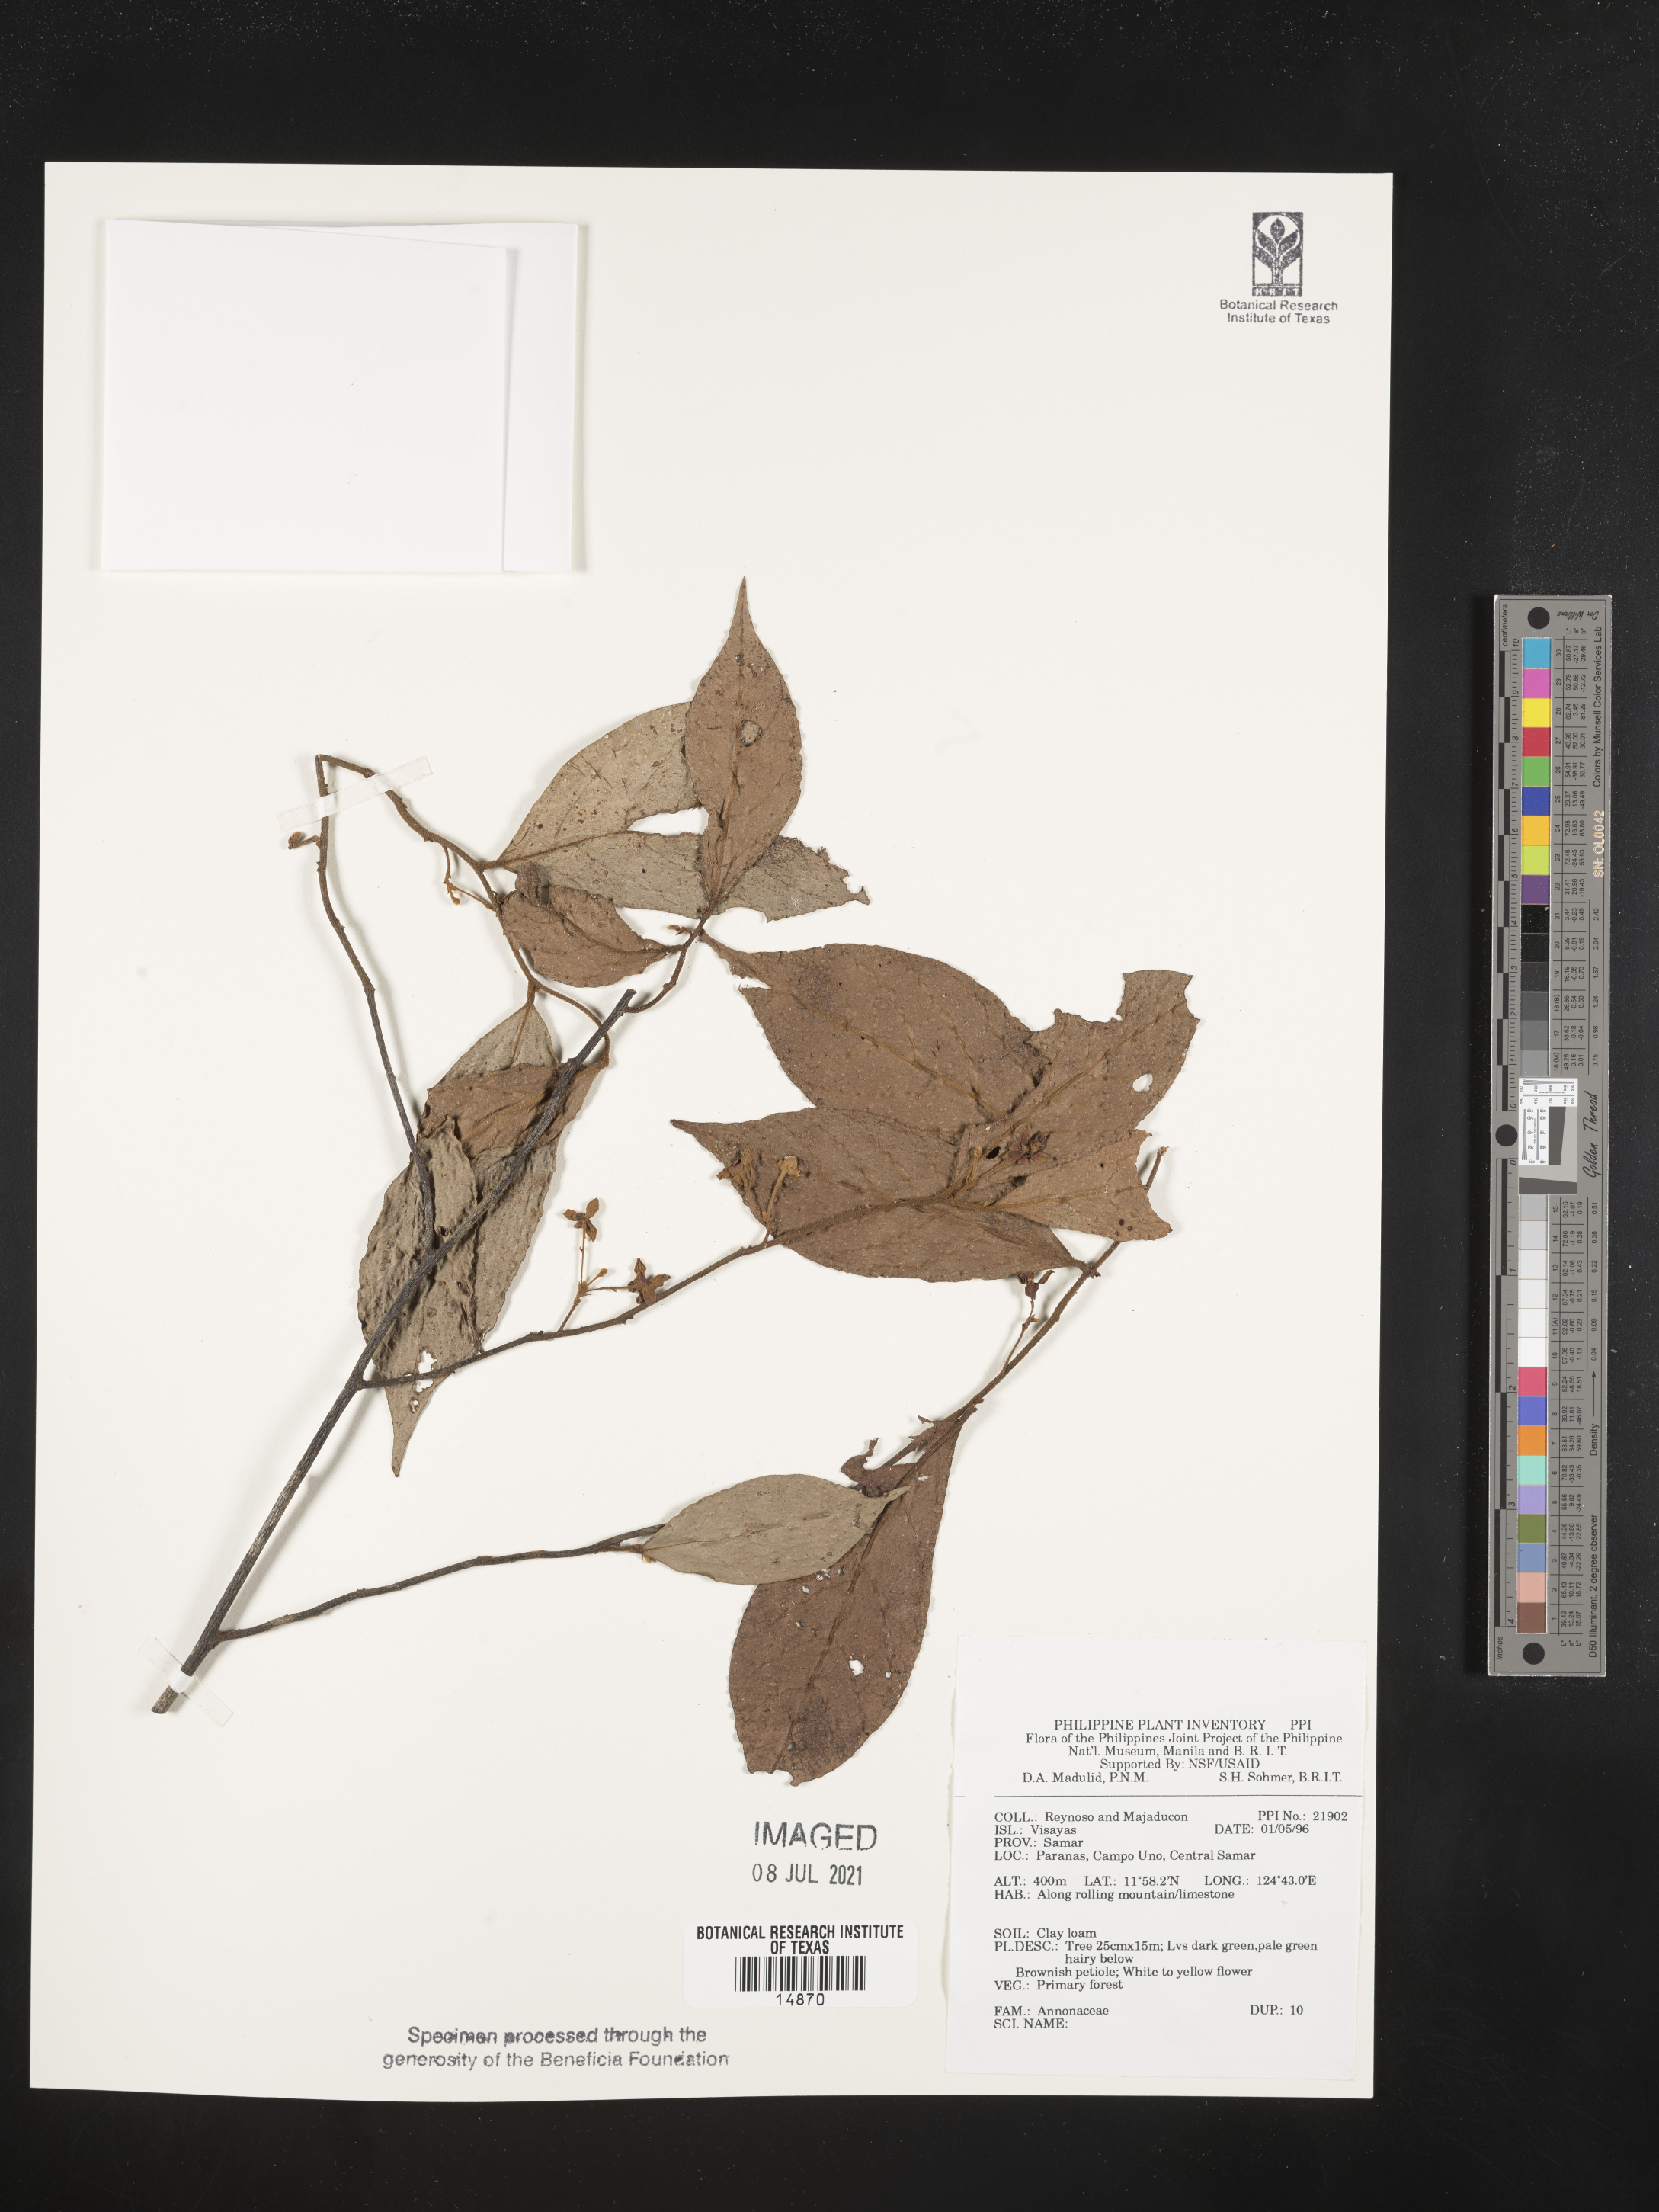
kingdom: Plantae
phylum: Tracheophyta
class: Magnoliopsida
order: Magnoliales
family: Annonaceae
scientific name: Annonaceae
